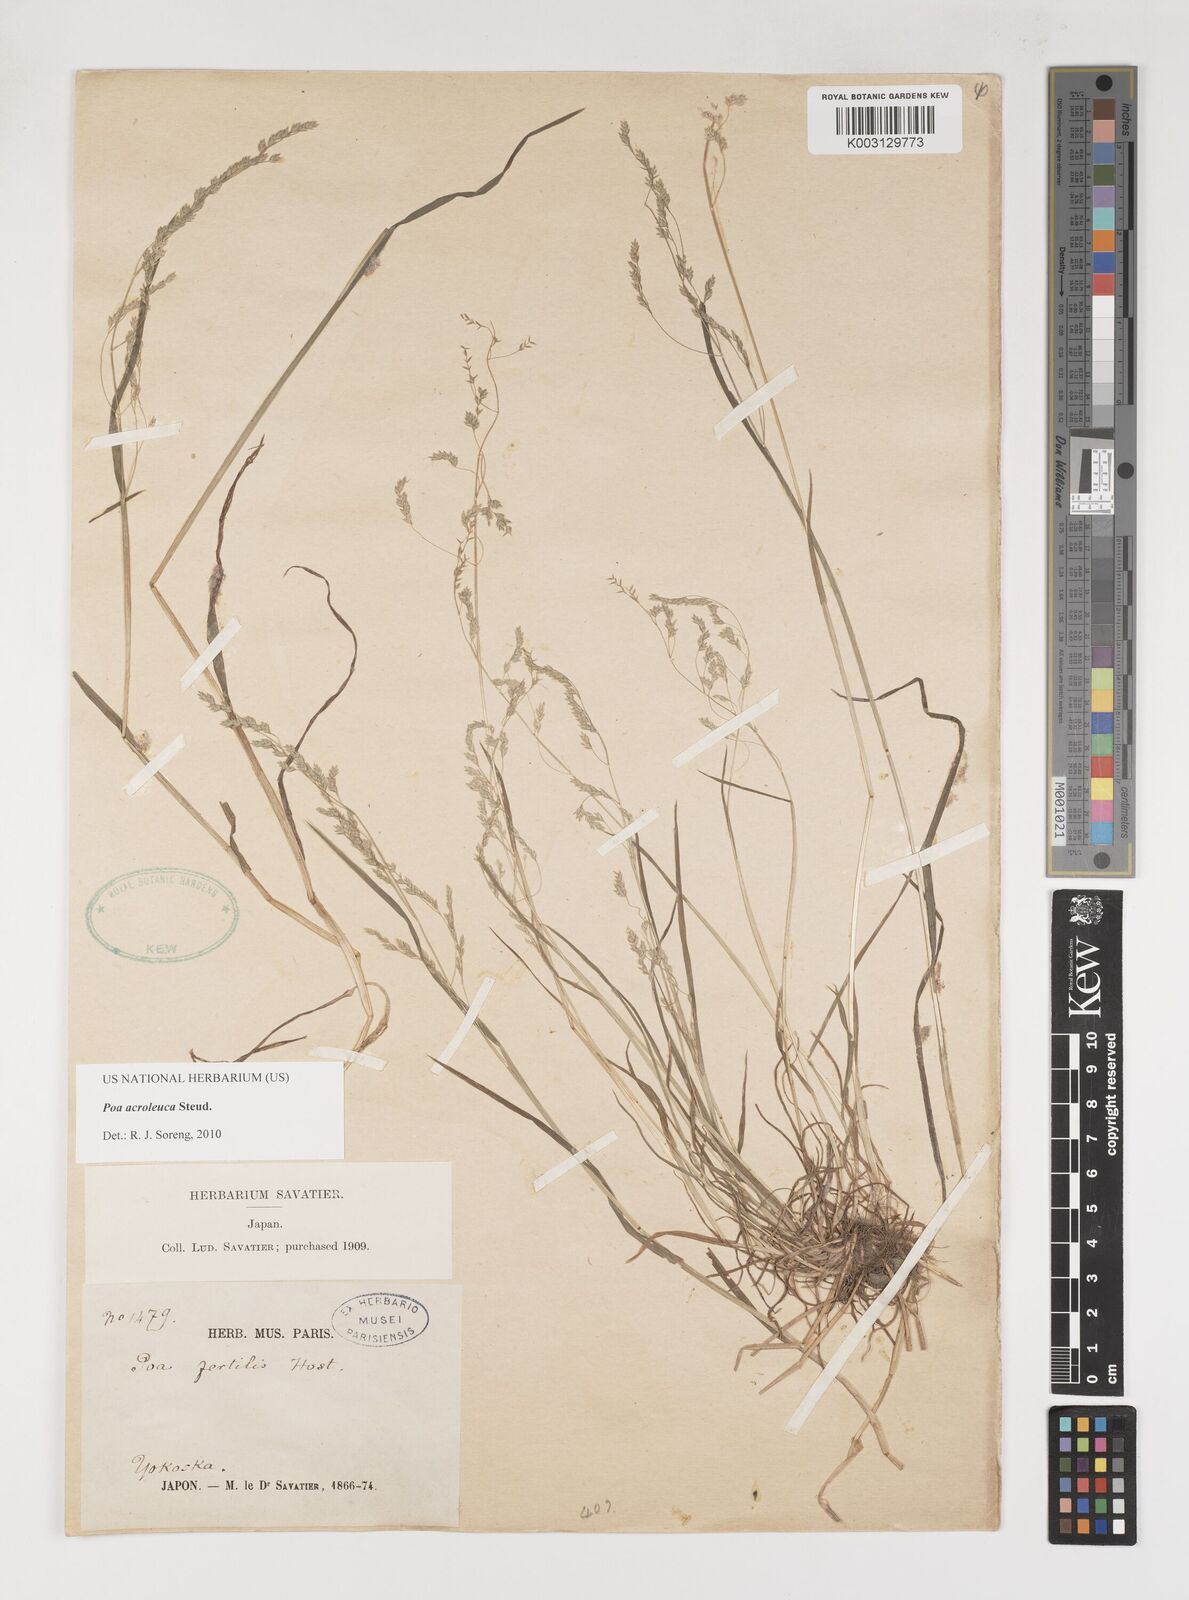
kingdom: Plantae
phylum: Tracheophyta
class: Liliopsida
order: Poales
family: Poaceae
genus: Poa
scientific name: Poa acroleuca
